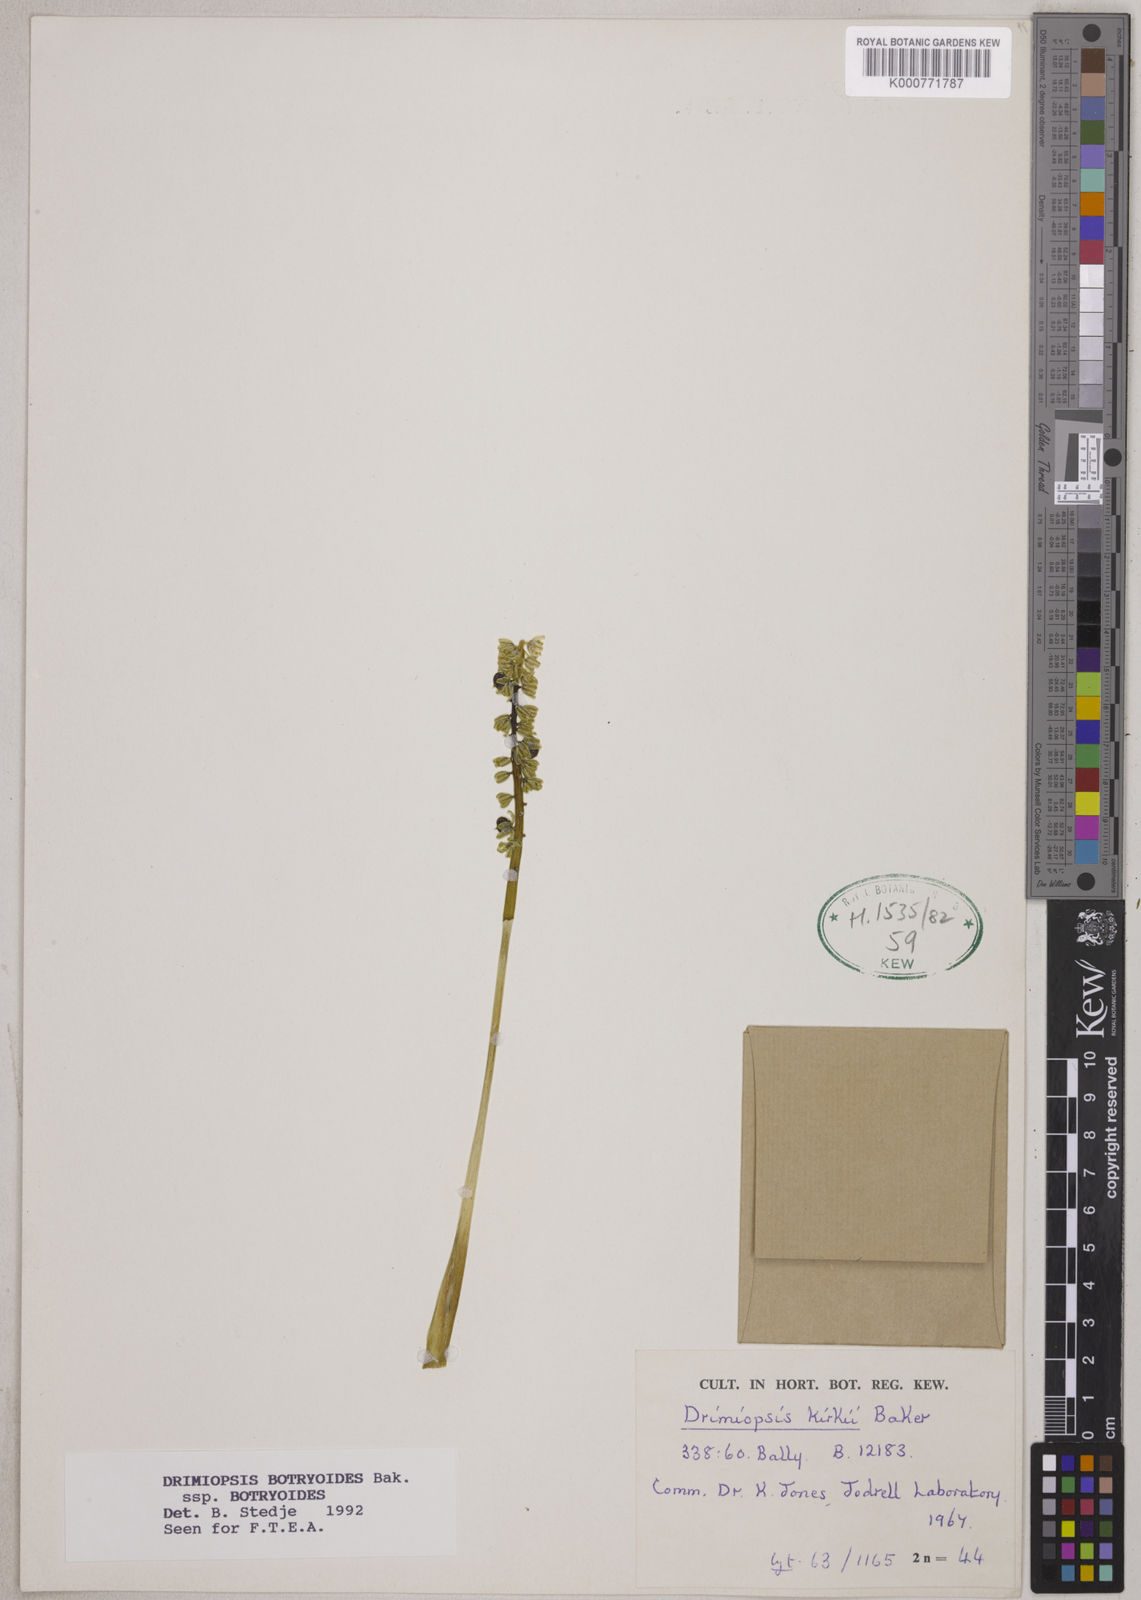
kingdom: Plantae
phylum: Tracheophyta
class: Liliopsida
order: Asparagales
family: Asparagaceae
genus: Drimiopsis
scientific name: Drimiopsis botryoides
